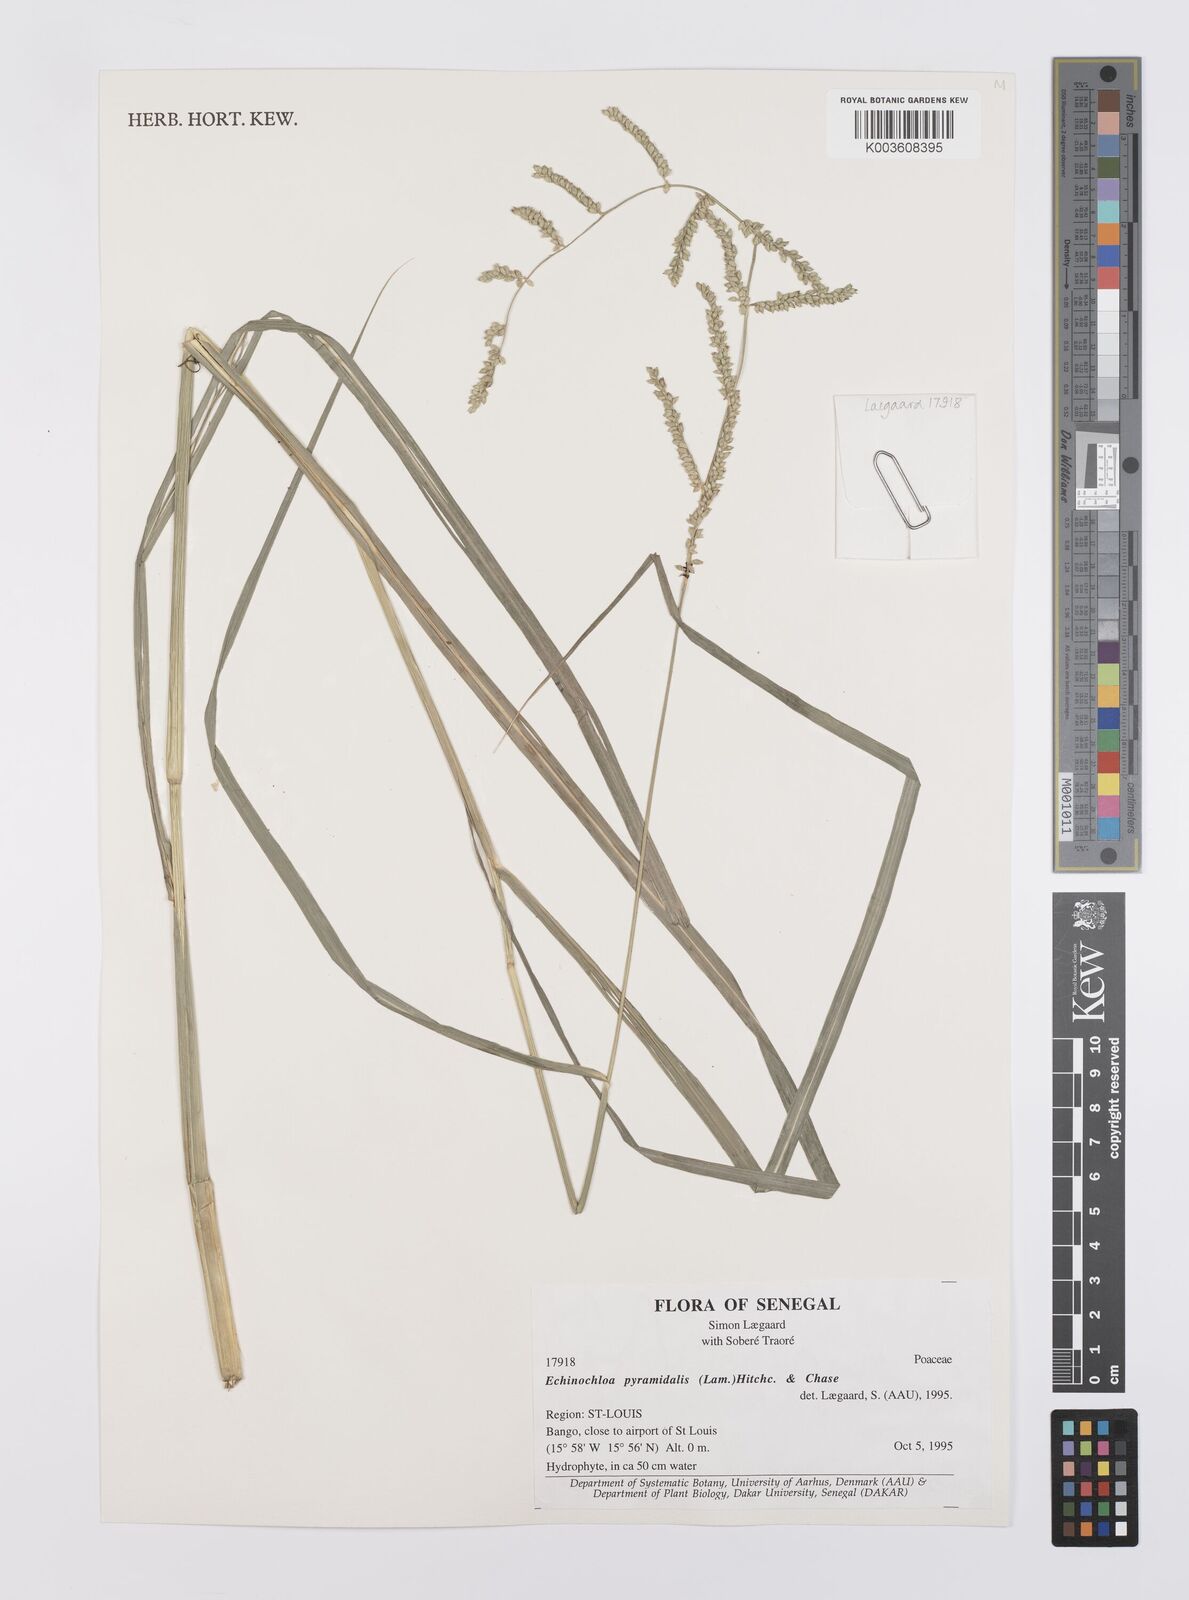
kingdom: Plantae
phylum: Tracheophyta
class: Liliopsida
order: Poales
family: Poaceae
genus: Echinochloa
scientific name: Echinochloa pyramidalis
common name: Antelope grass
